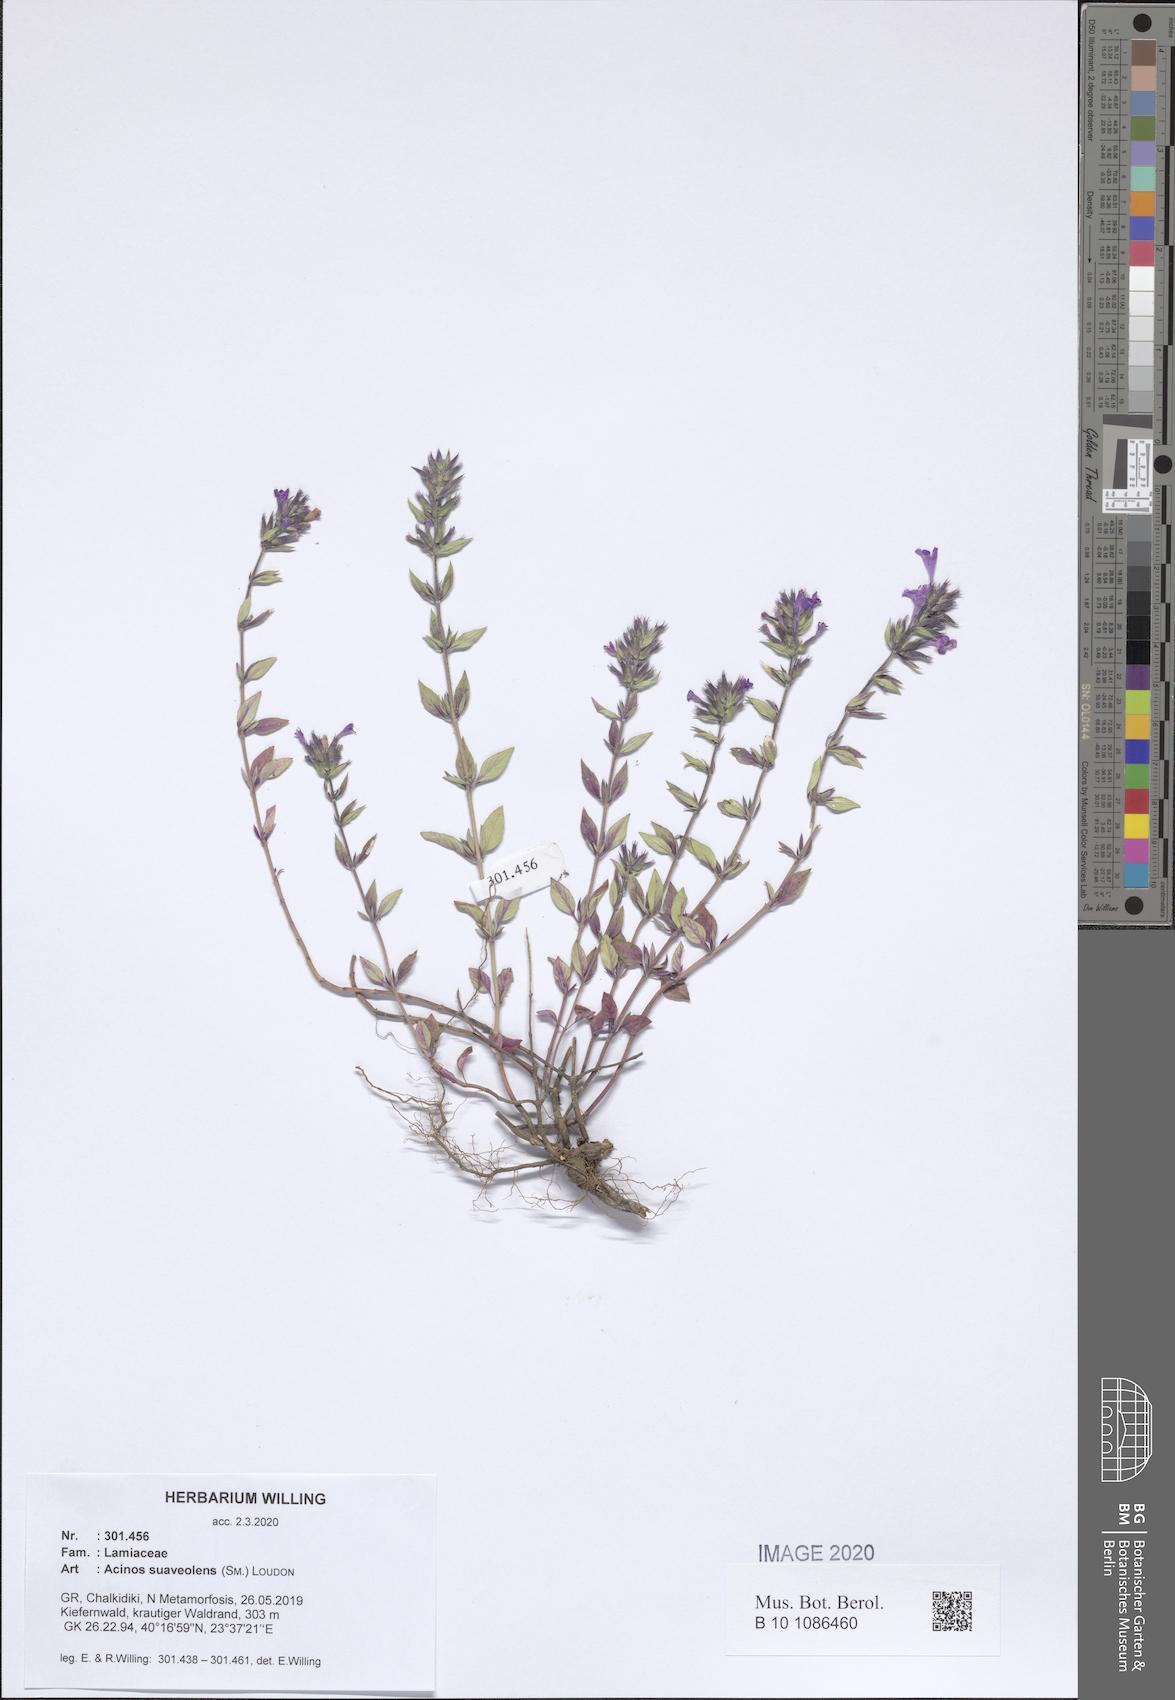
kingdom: Plantae
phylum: Tracheophyta
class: Magnoliopsida
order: Lamiales
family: Lamiaceae
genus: Clinopodium
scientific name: Clinopodium suaveolens
